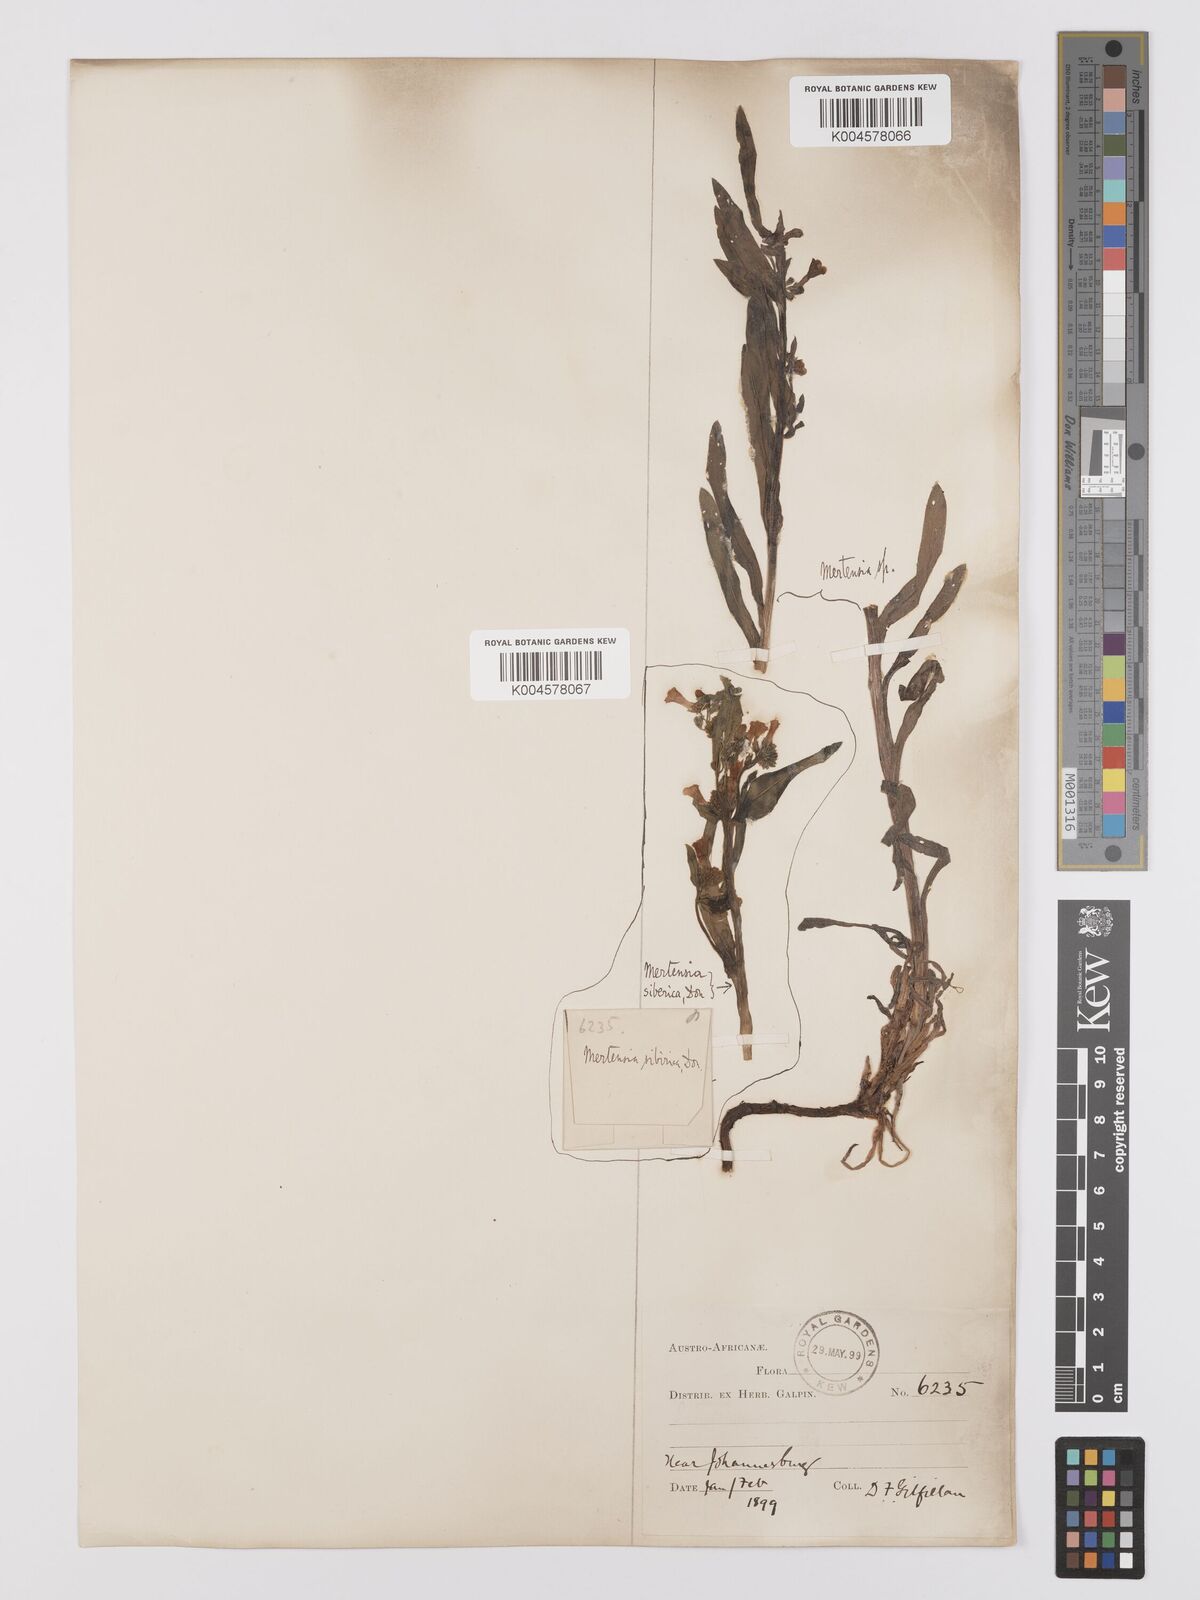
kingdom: Plantae
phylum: Tracheophyta
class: Magnoliopsida
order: Boraginales
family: Boraginaceae
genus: Anchusa
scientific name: Anchusa capensis
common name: Cape bugloss
